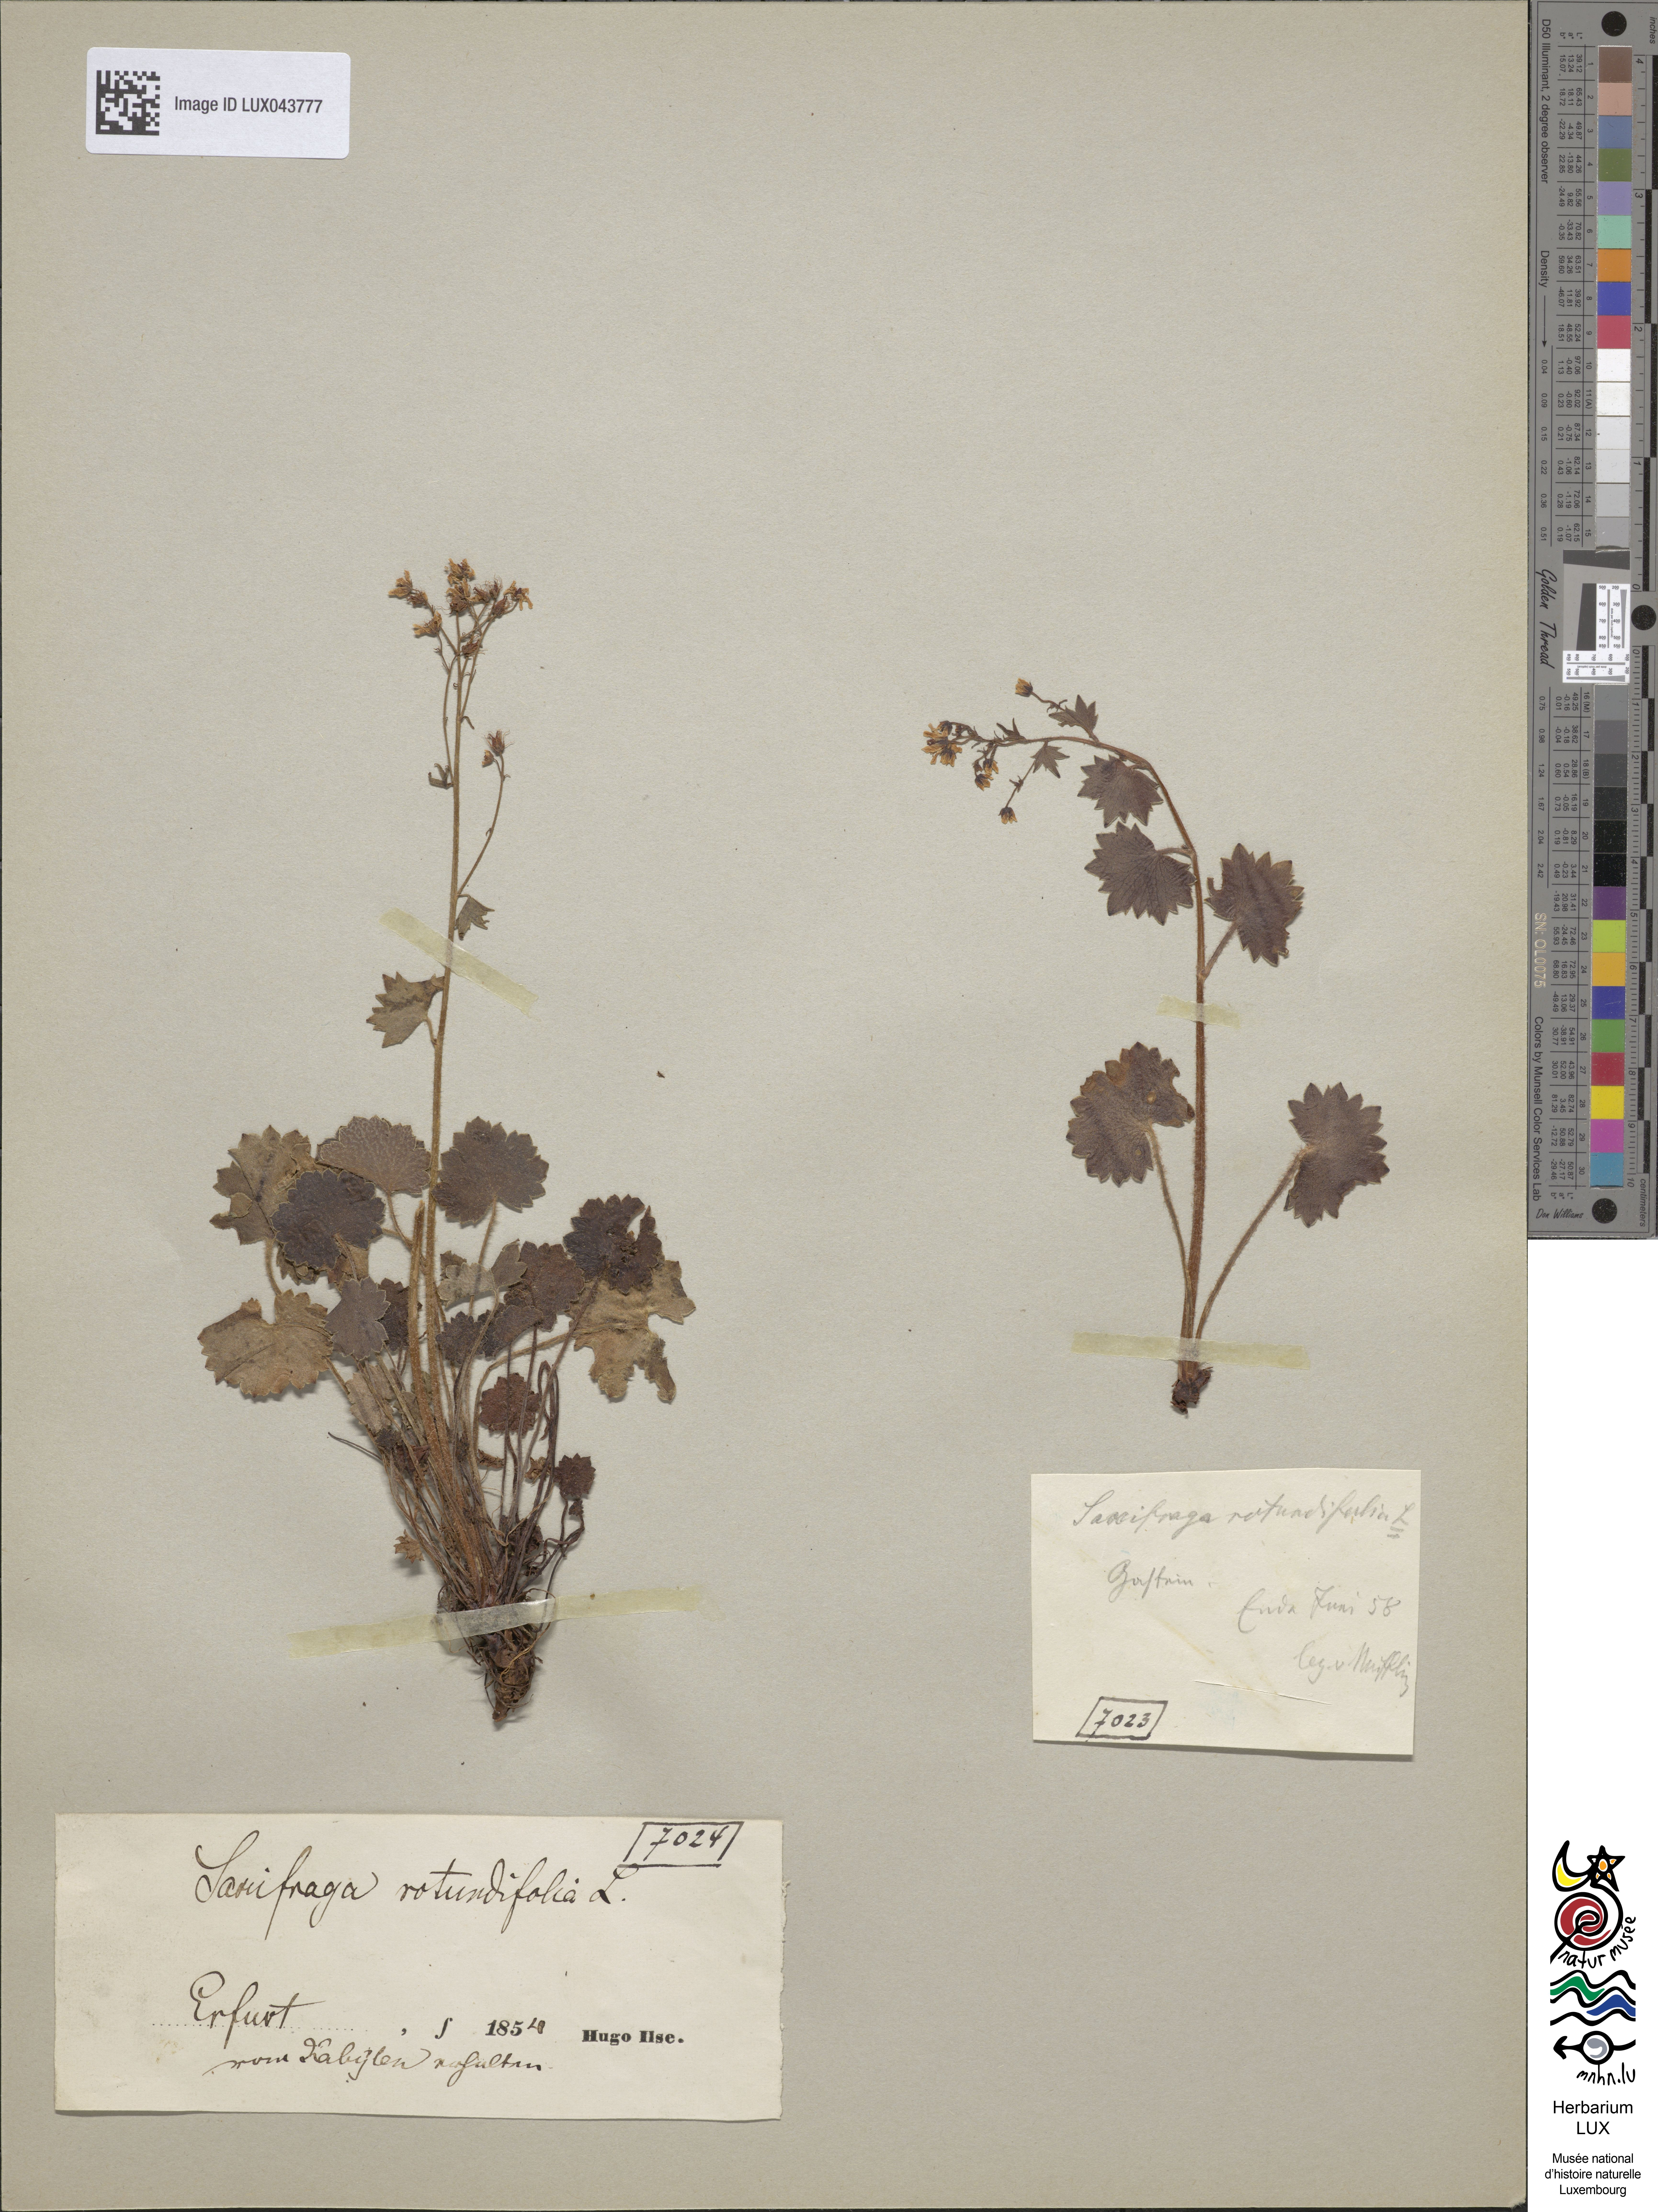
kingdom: Plantae
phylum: Tracheophyta
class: Magnoliopsida
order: Saxifragales
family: Saxifragaceae
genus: Saxifraga
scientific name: Saxifraga rotundifolia
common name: Round-leaved saxifrage
